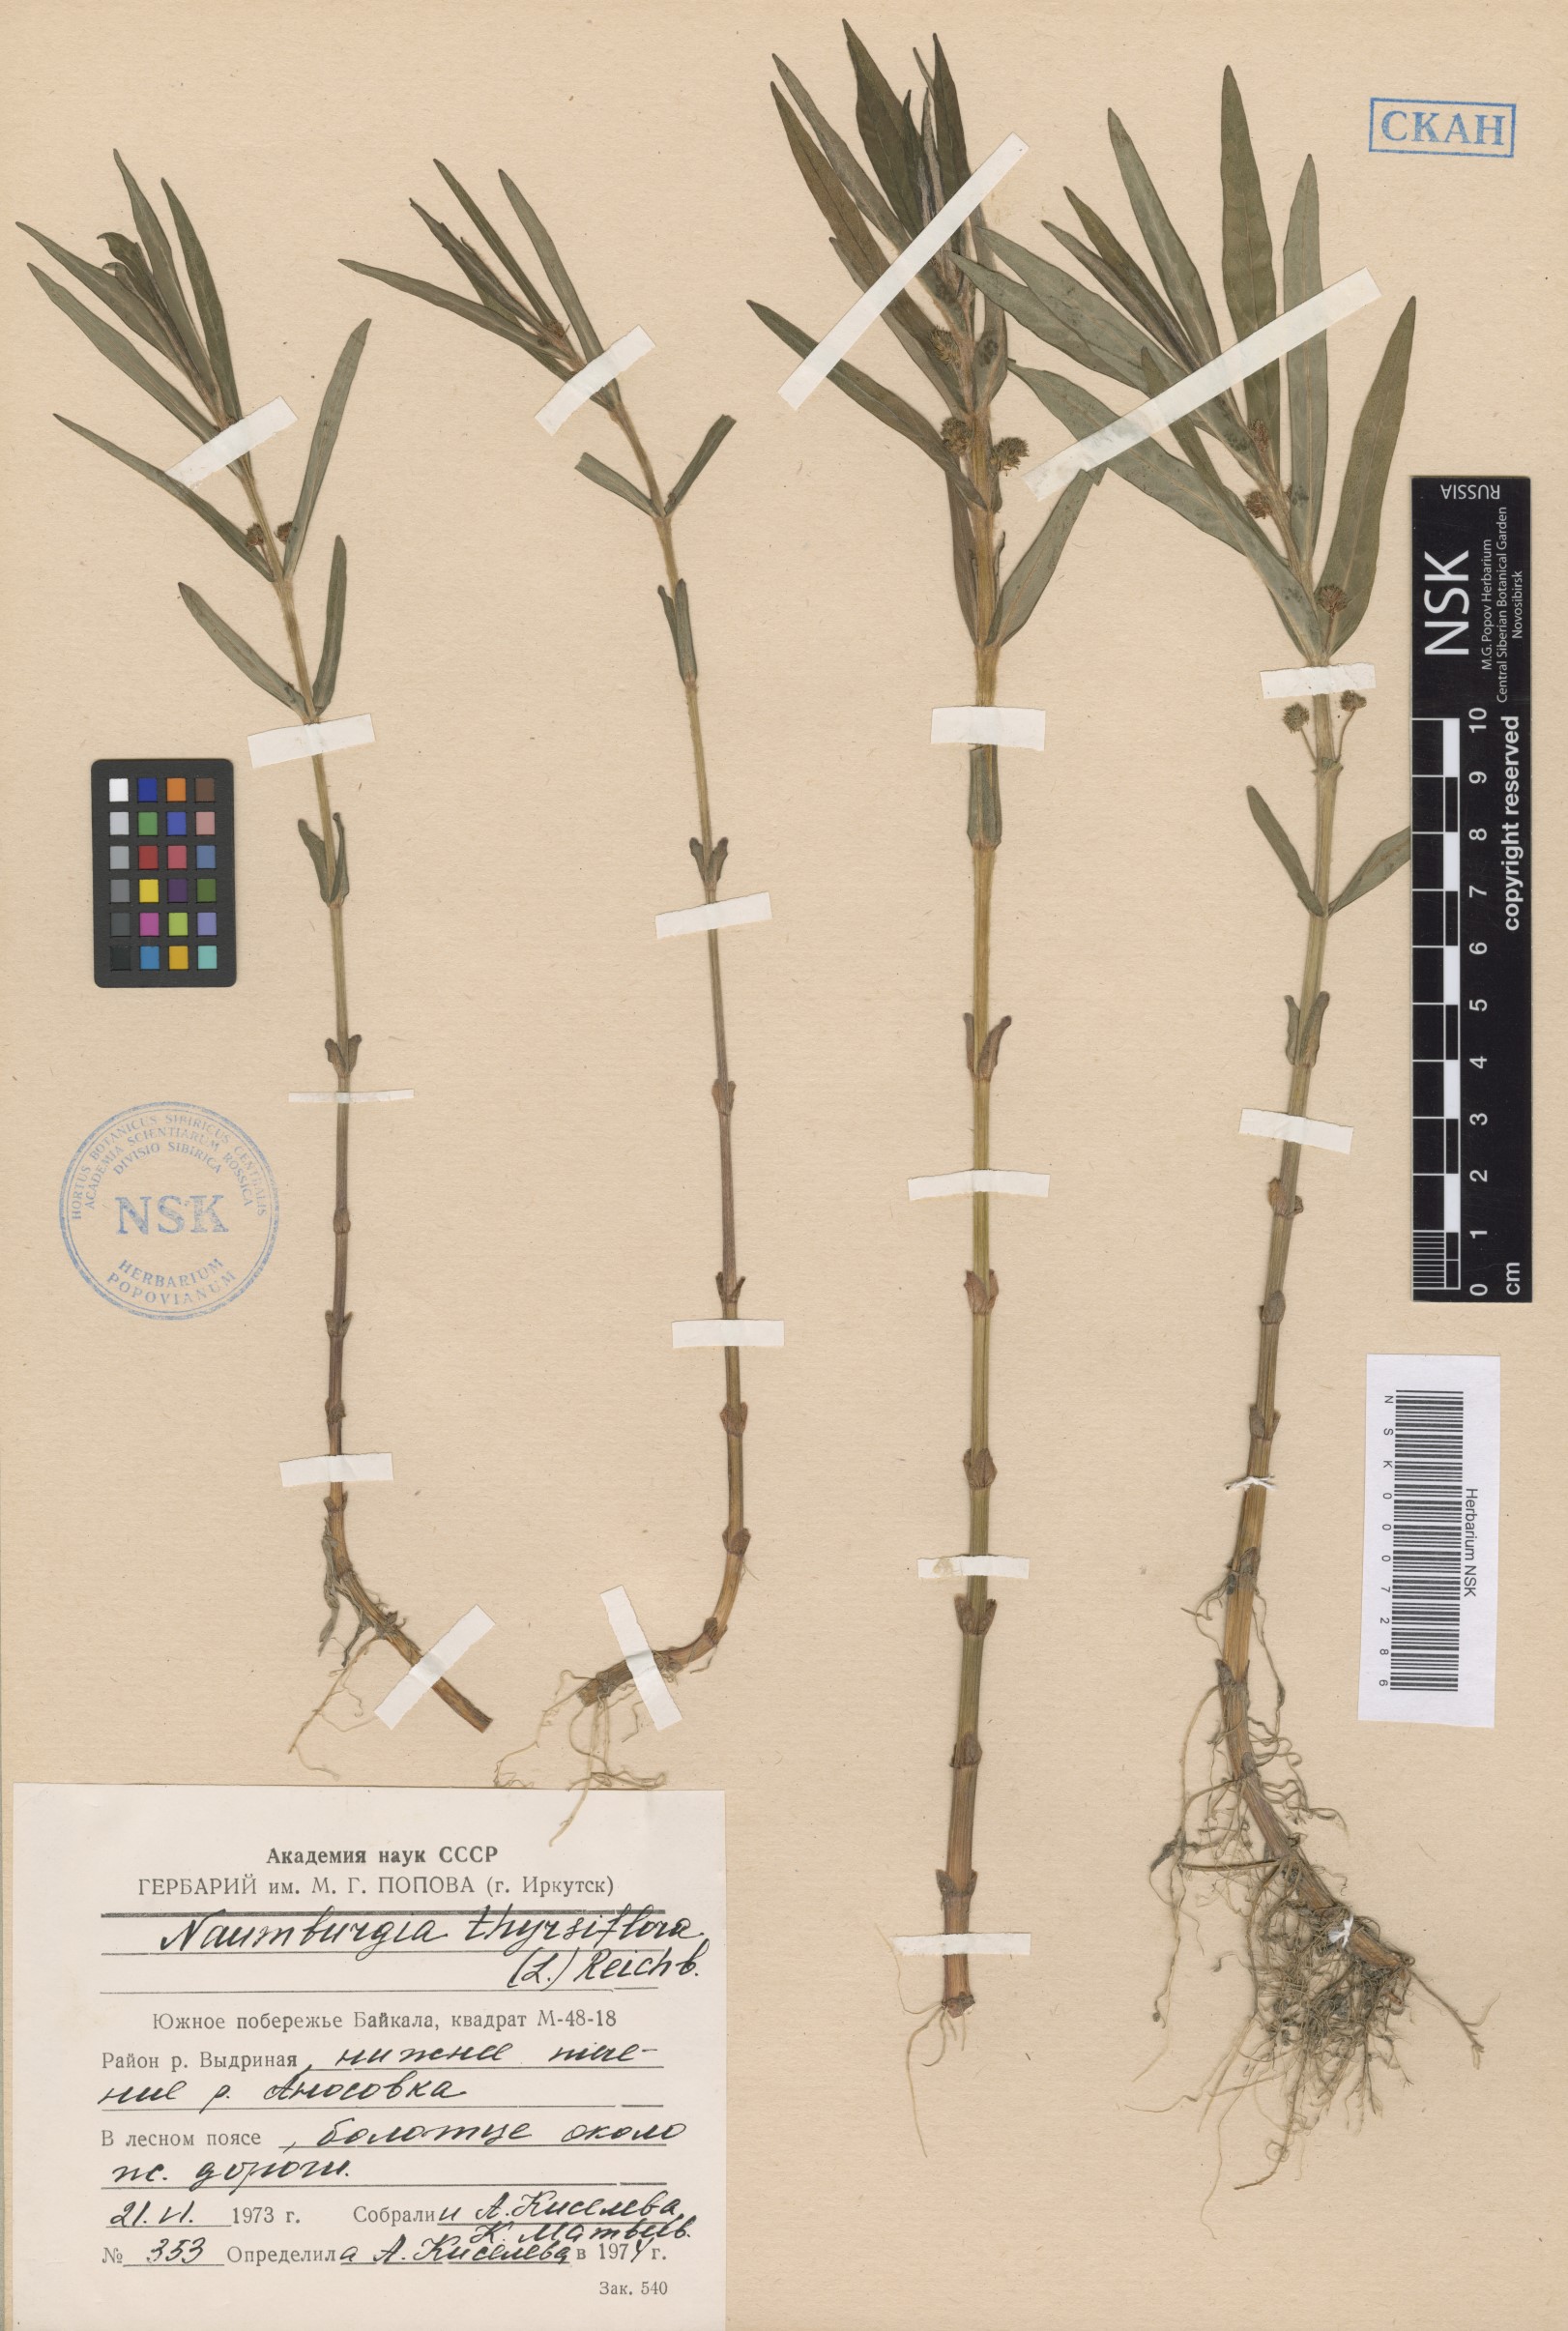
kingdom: Plantae
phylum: Tracheophyta
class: Magnoliopsida
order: Ericales
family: Primulaceae
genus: Lysimachia
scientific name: Lysimachia thyrsiflora
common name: Tufted loosestrife
